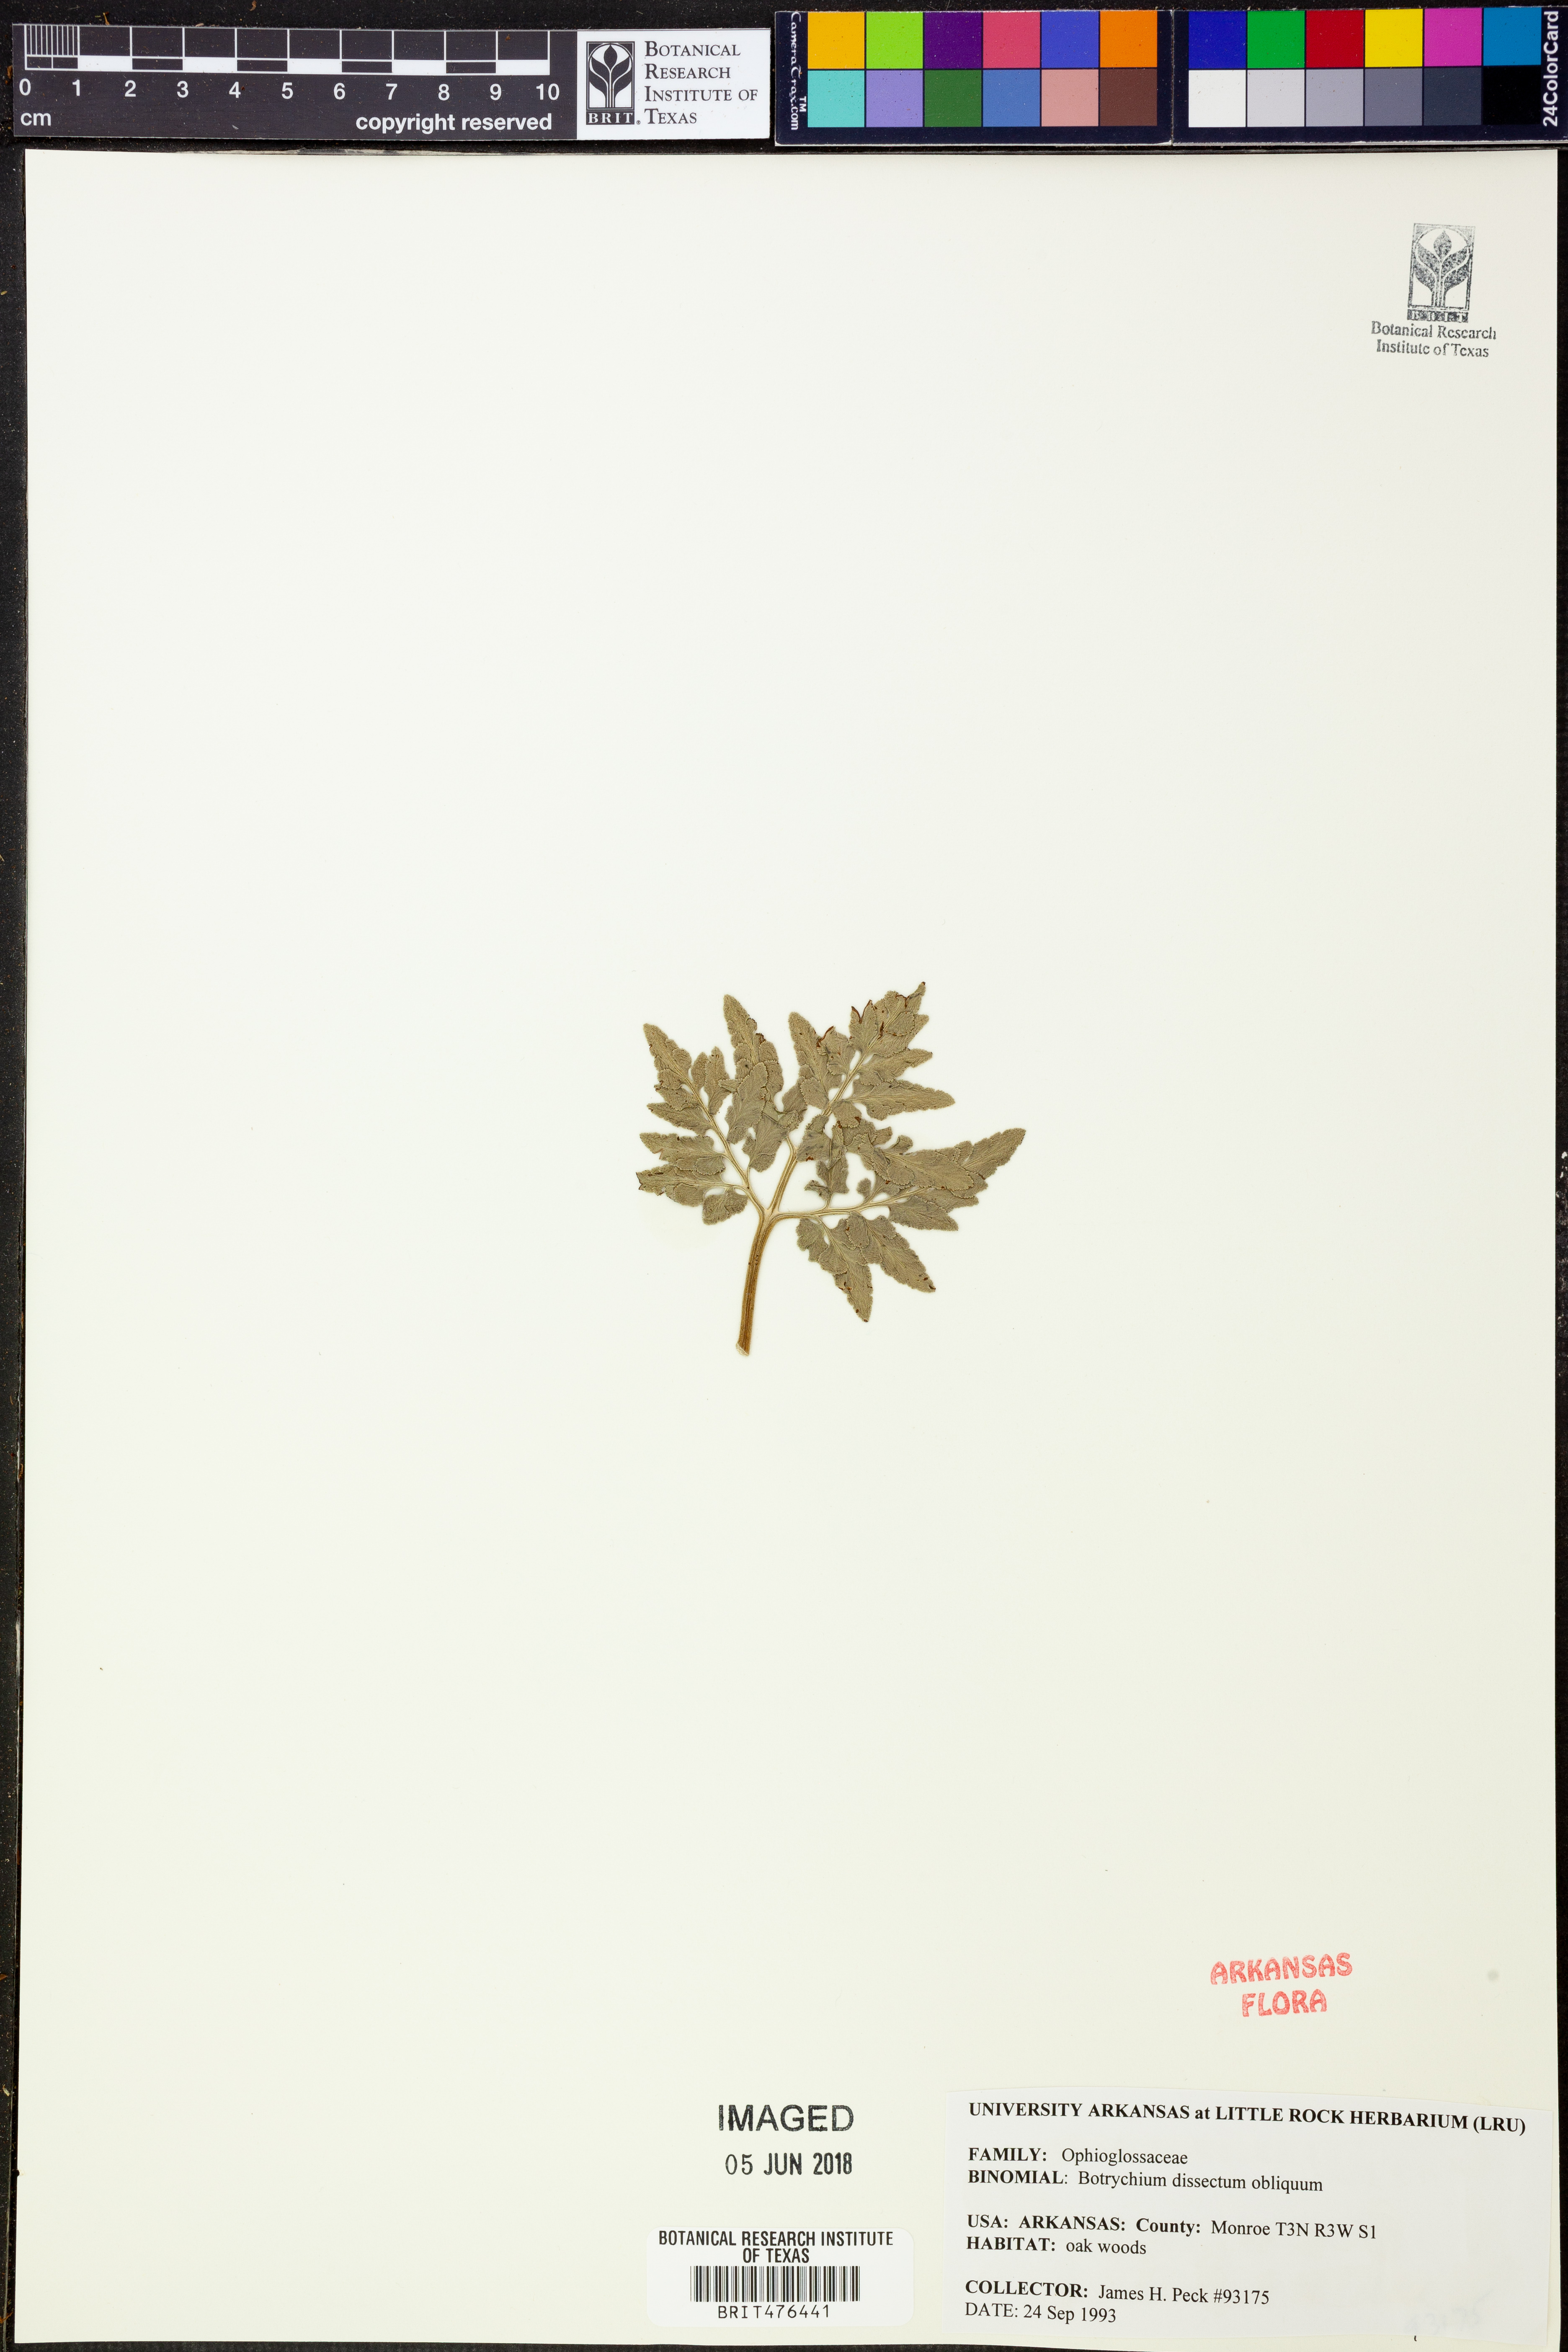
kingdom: Plantae
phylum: Tracheophyta
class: Polypodiopsida
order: Ophioglossales
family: Ophioglossaceae
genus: Sceptridium
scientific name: Sceptridium dissectum
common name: Cut-leaved grapefern
